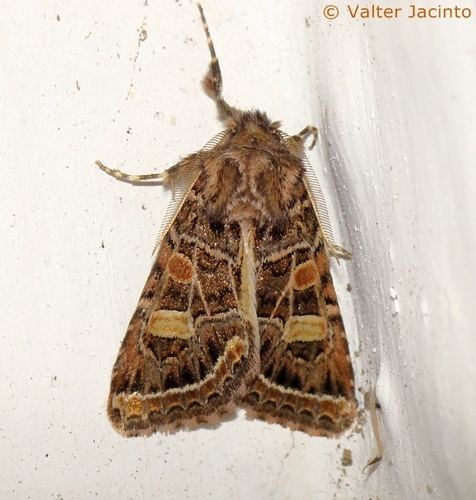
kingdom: Animalia
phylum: Arthropoda
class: Insecta
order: Lepidoptera
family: Noctuidae
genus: Leucochlaena
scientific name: Leucochlaena oditis
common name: Beautiful gothic
